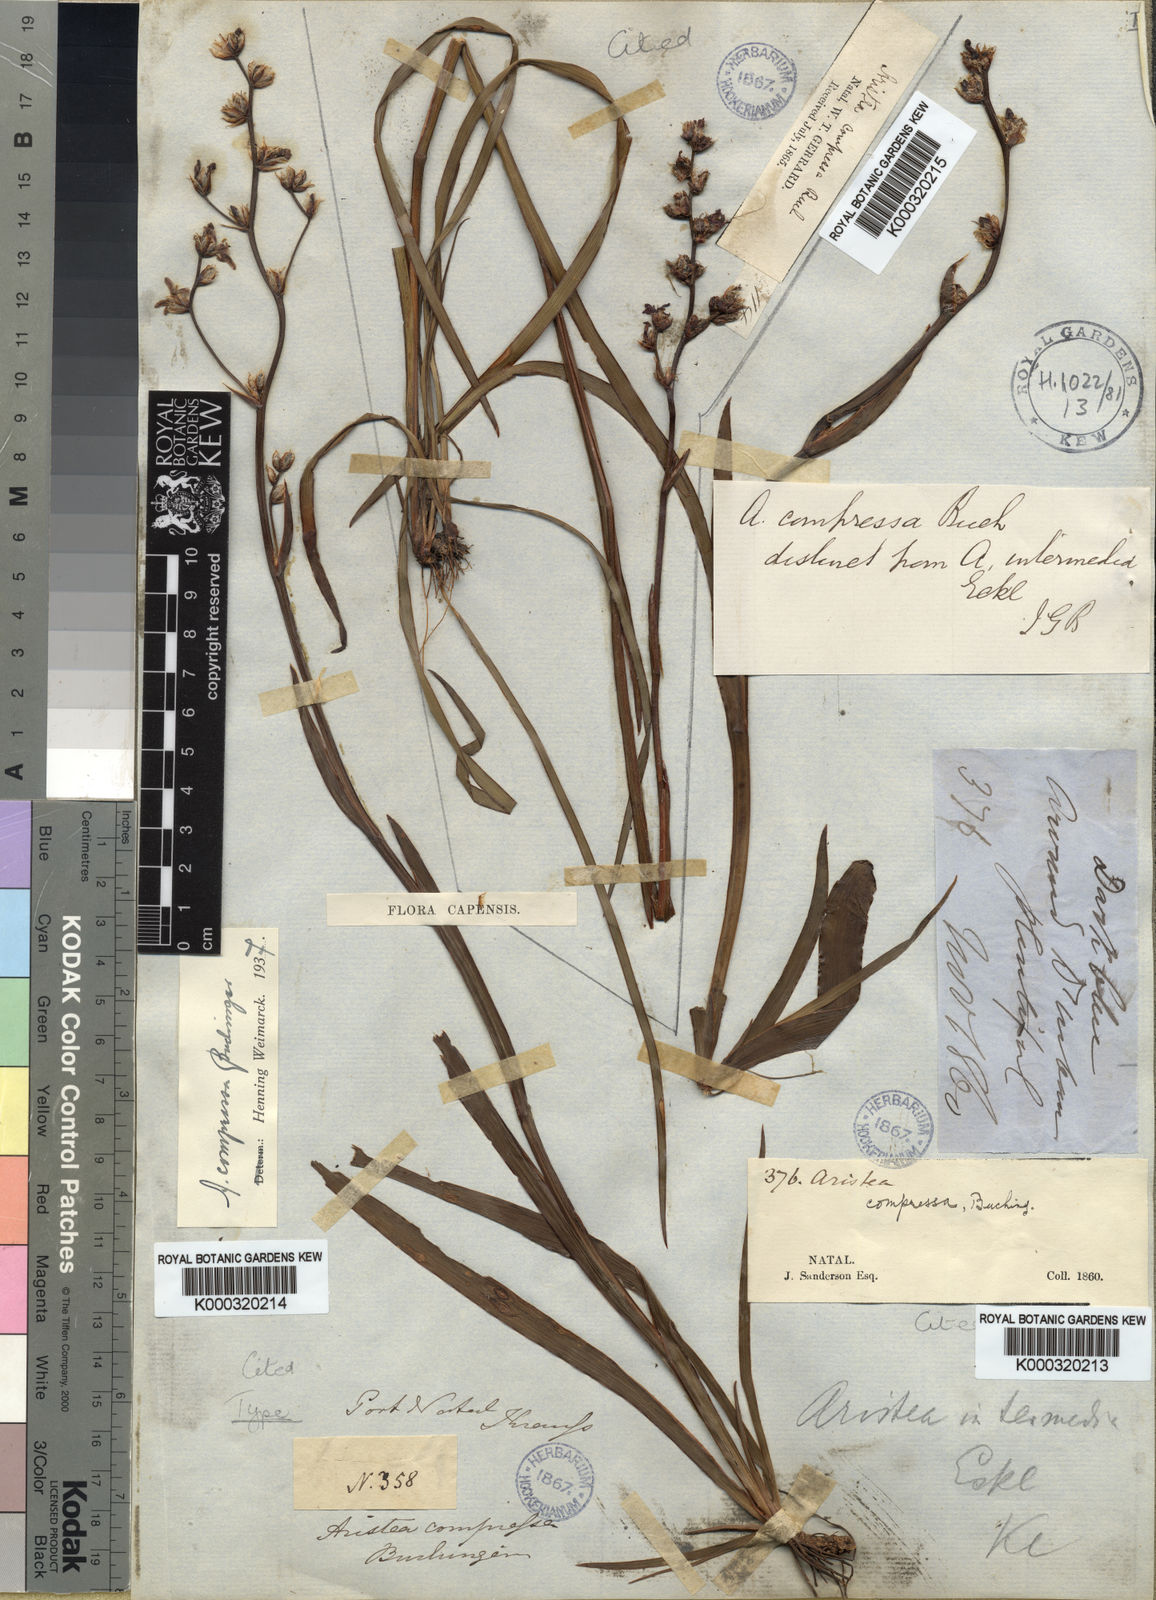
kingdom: Plantae
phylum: Tracheophyta
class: Liliopsida
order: Asparagales
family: Iridaceae
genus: Aristea
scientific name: Aristea compressa
